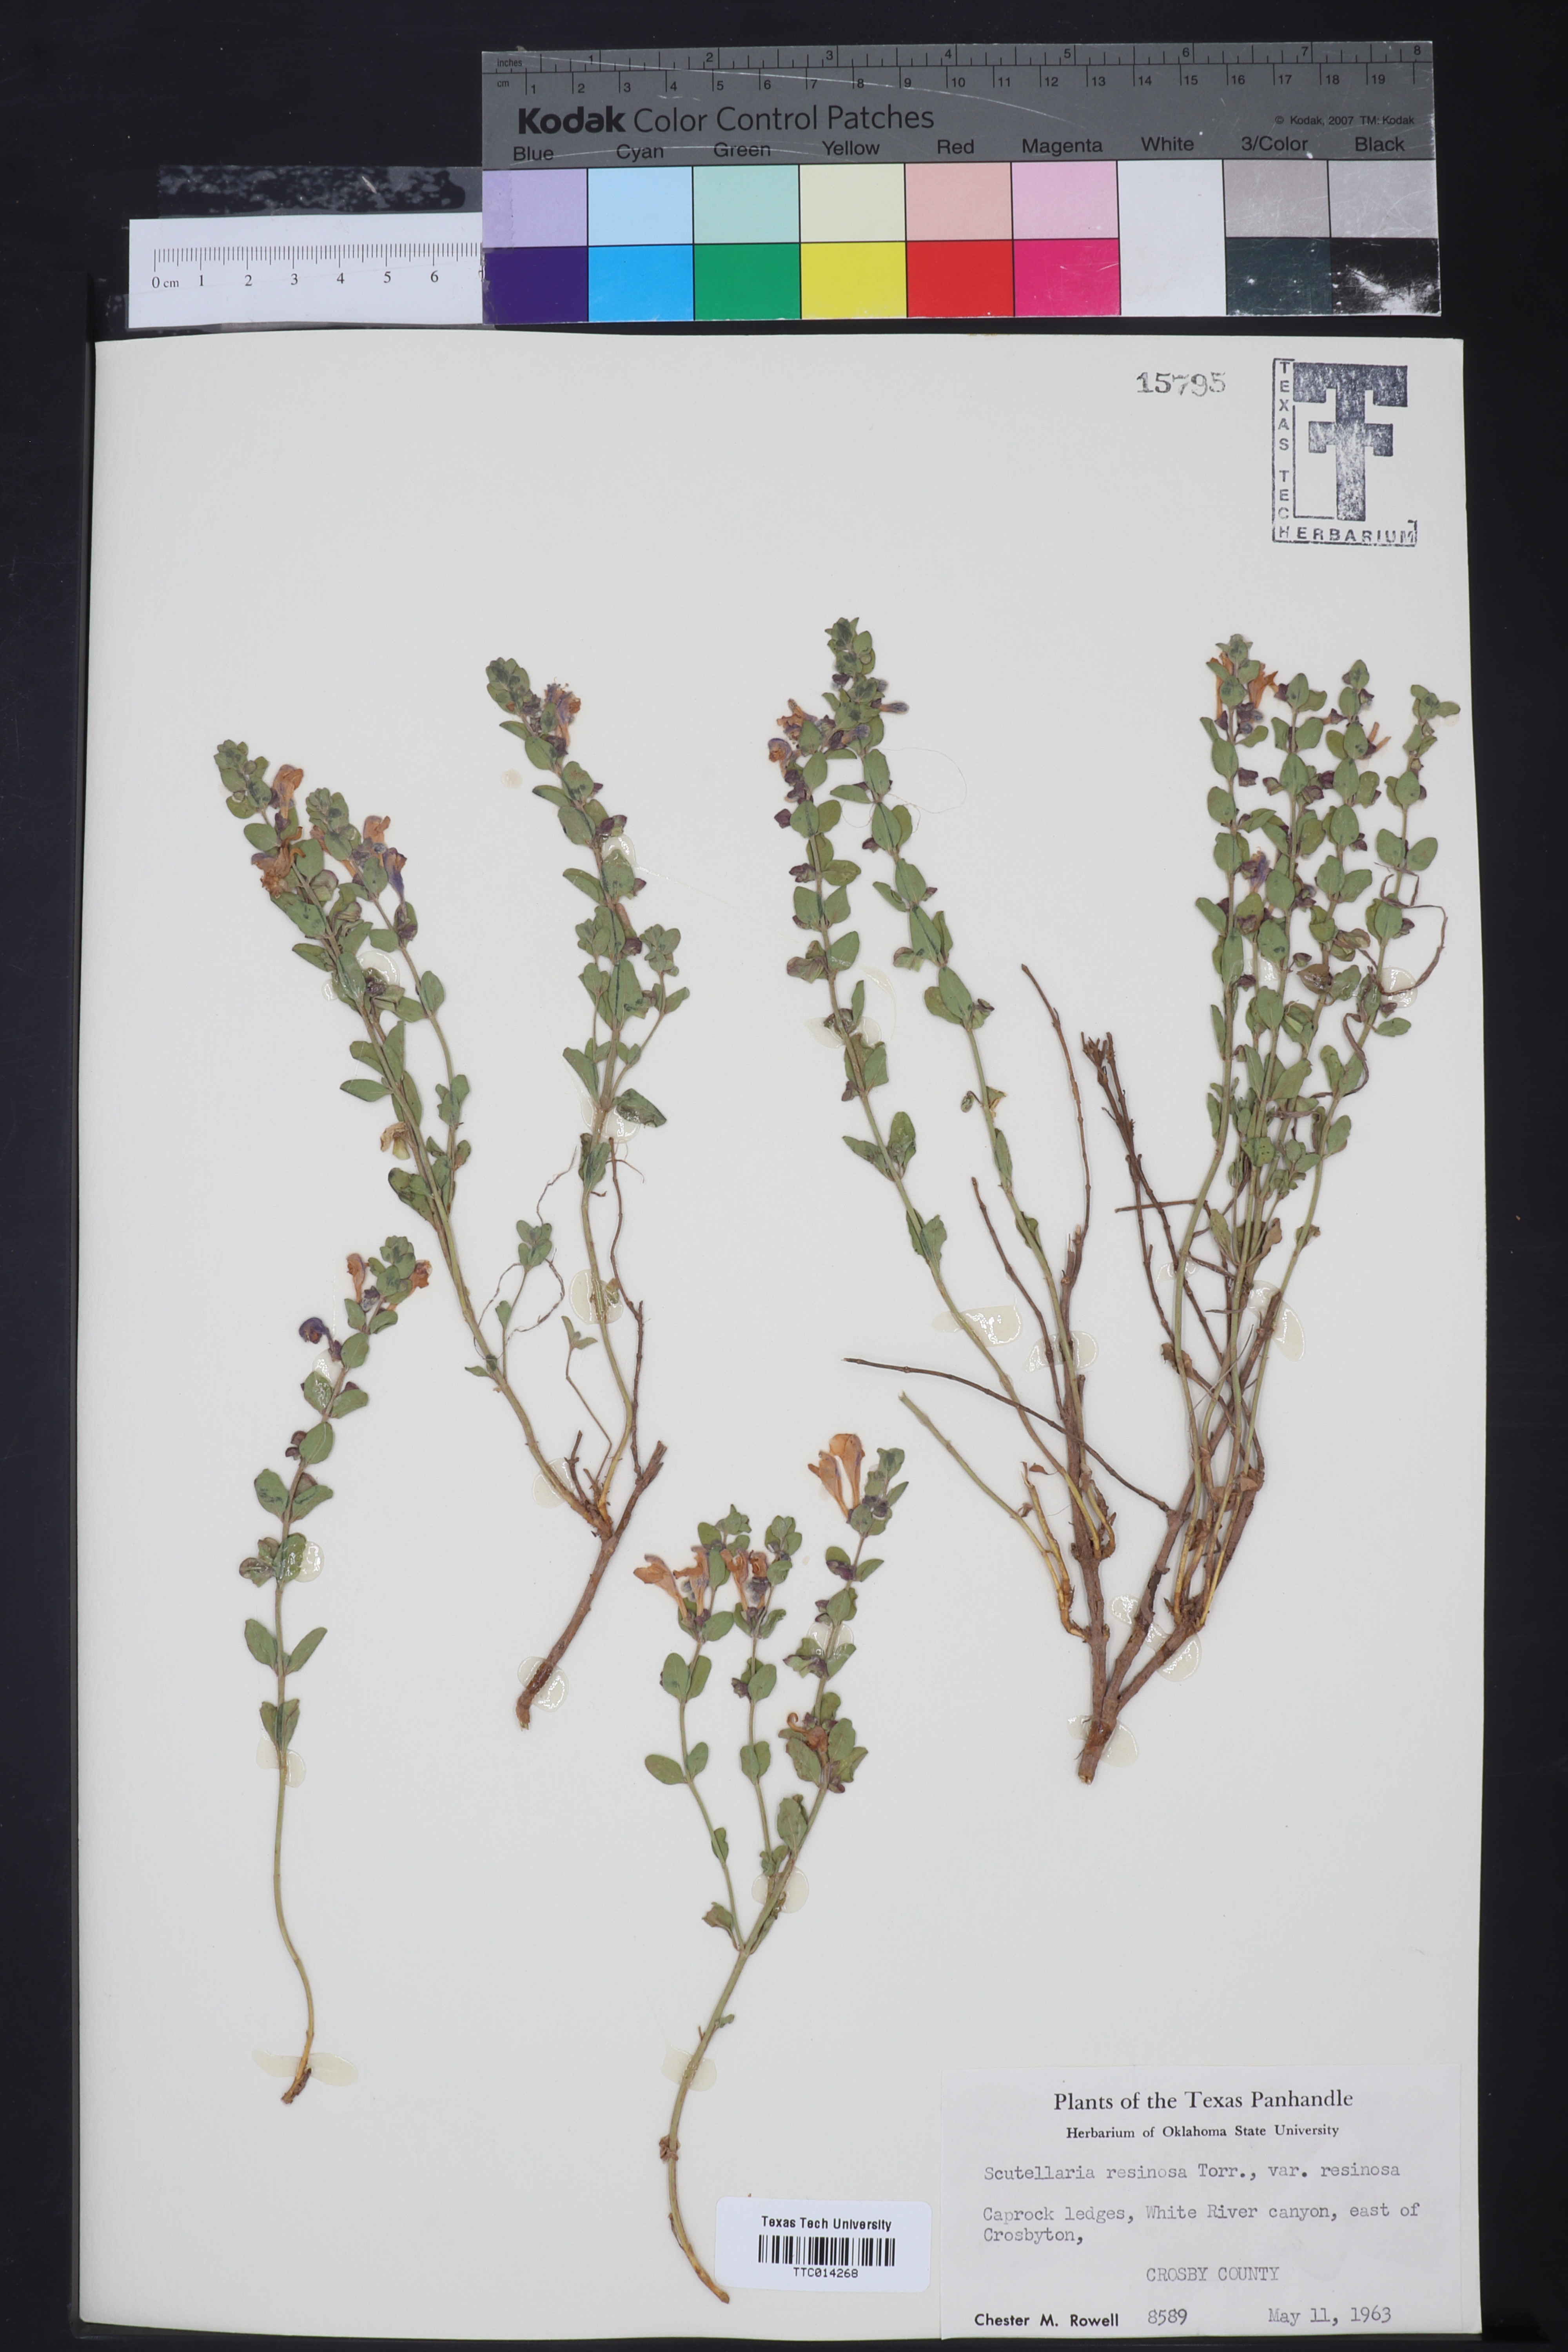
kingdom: Plantae
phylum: Tracheophyta
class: Magnoliopsida
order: Lamiales
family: Lamiaceae
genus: Scutellaria
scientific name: Scutellaria resinosa
